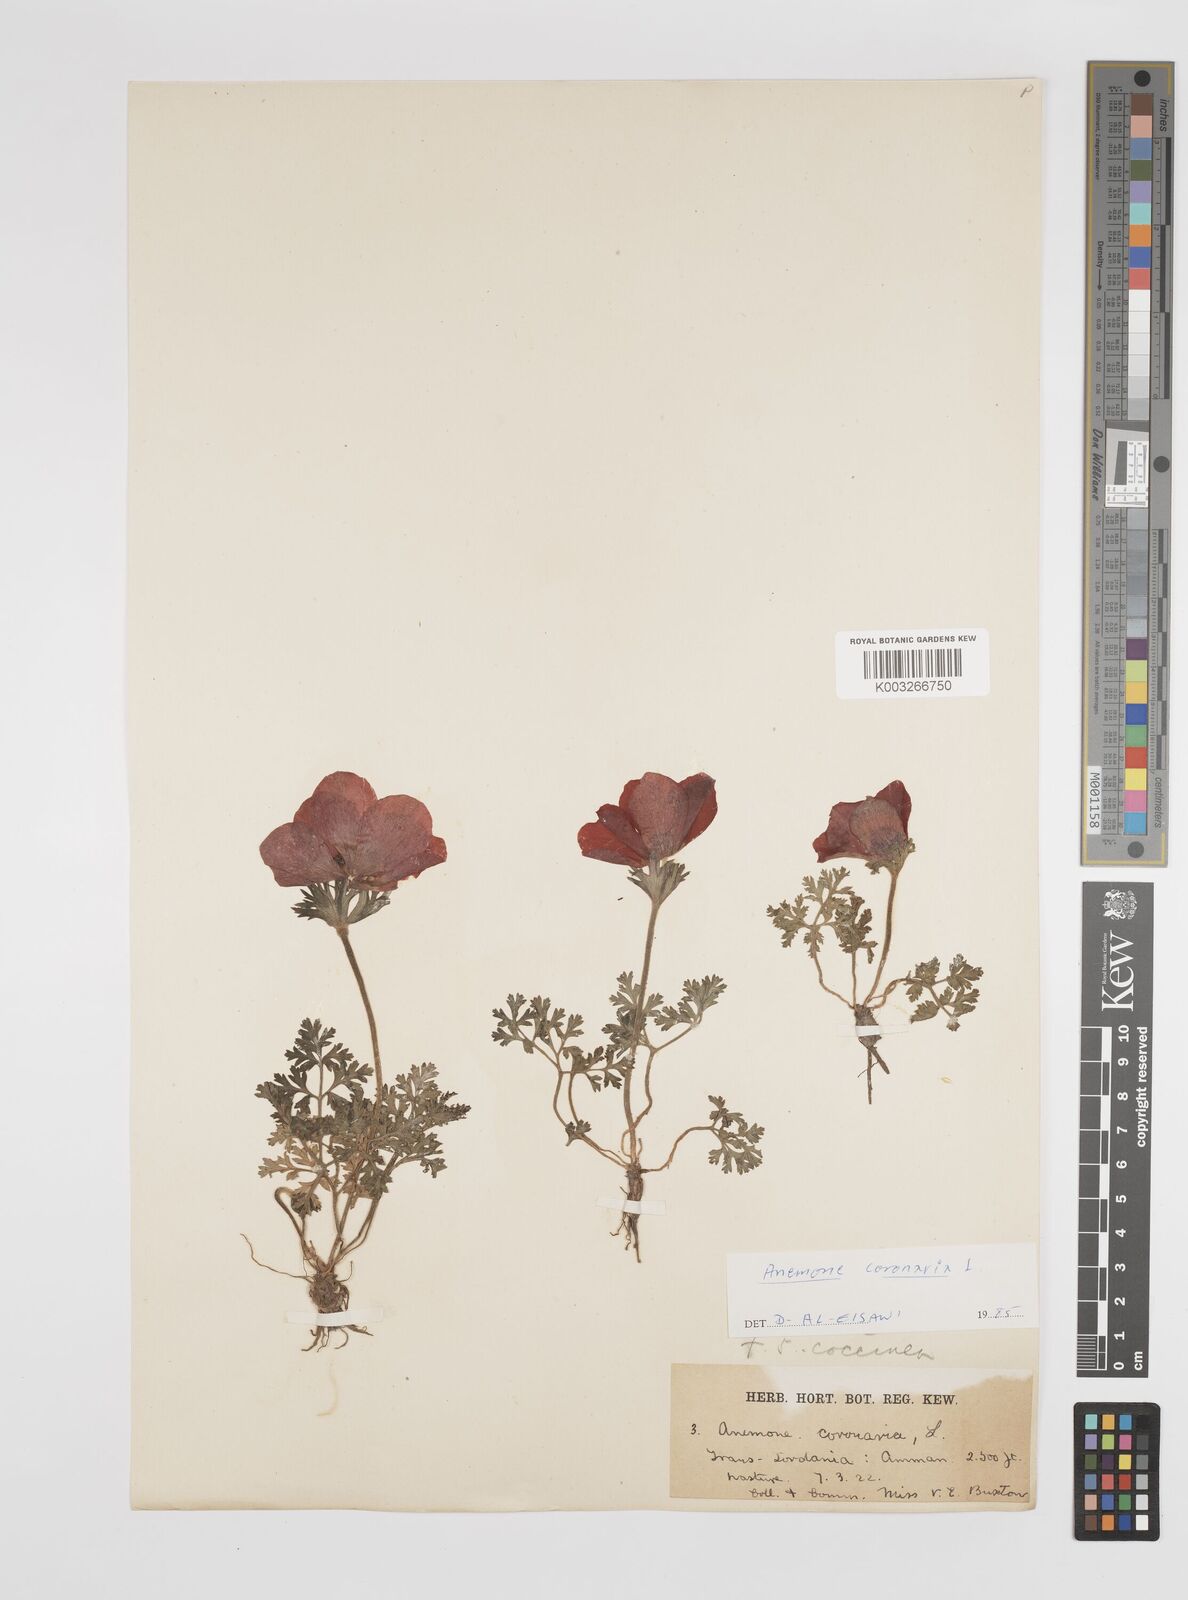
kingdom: Plantae
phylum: Tracheophyta
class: Magnoliopsida
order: Ranunculales
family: Ranunculaceae
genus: Anemone
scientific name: Anemone coronaria
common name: Poppy anemone
